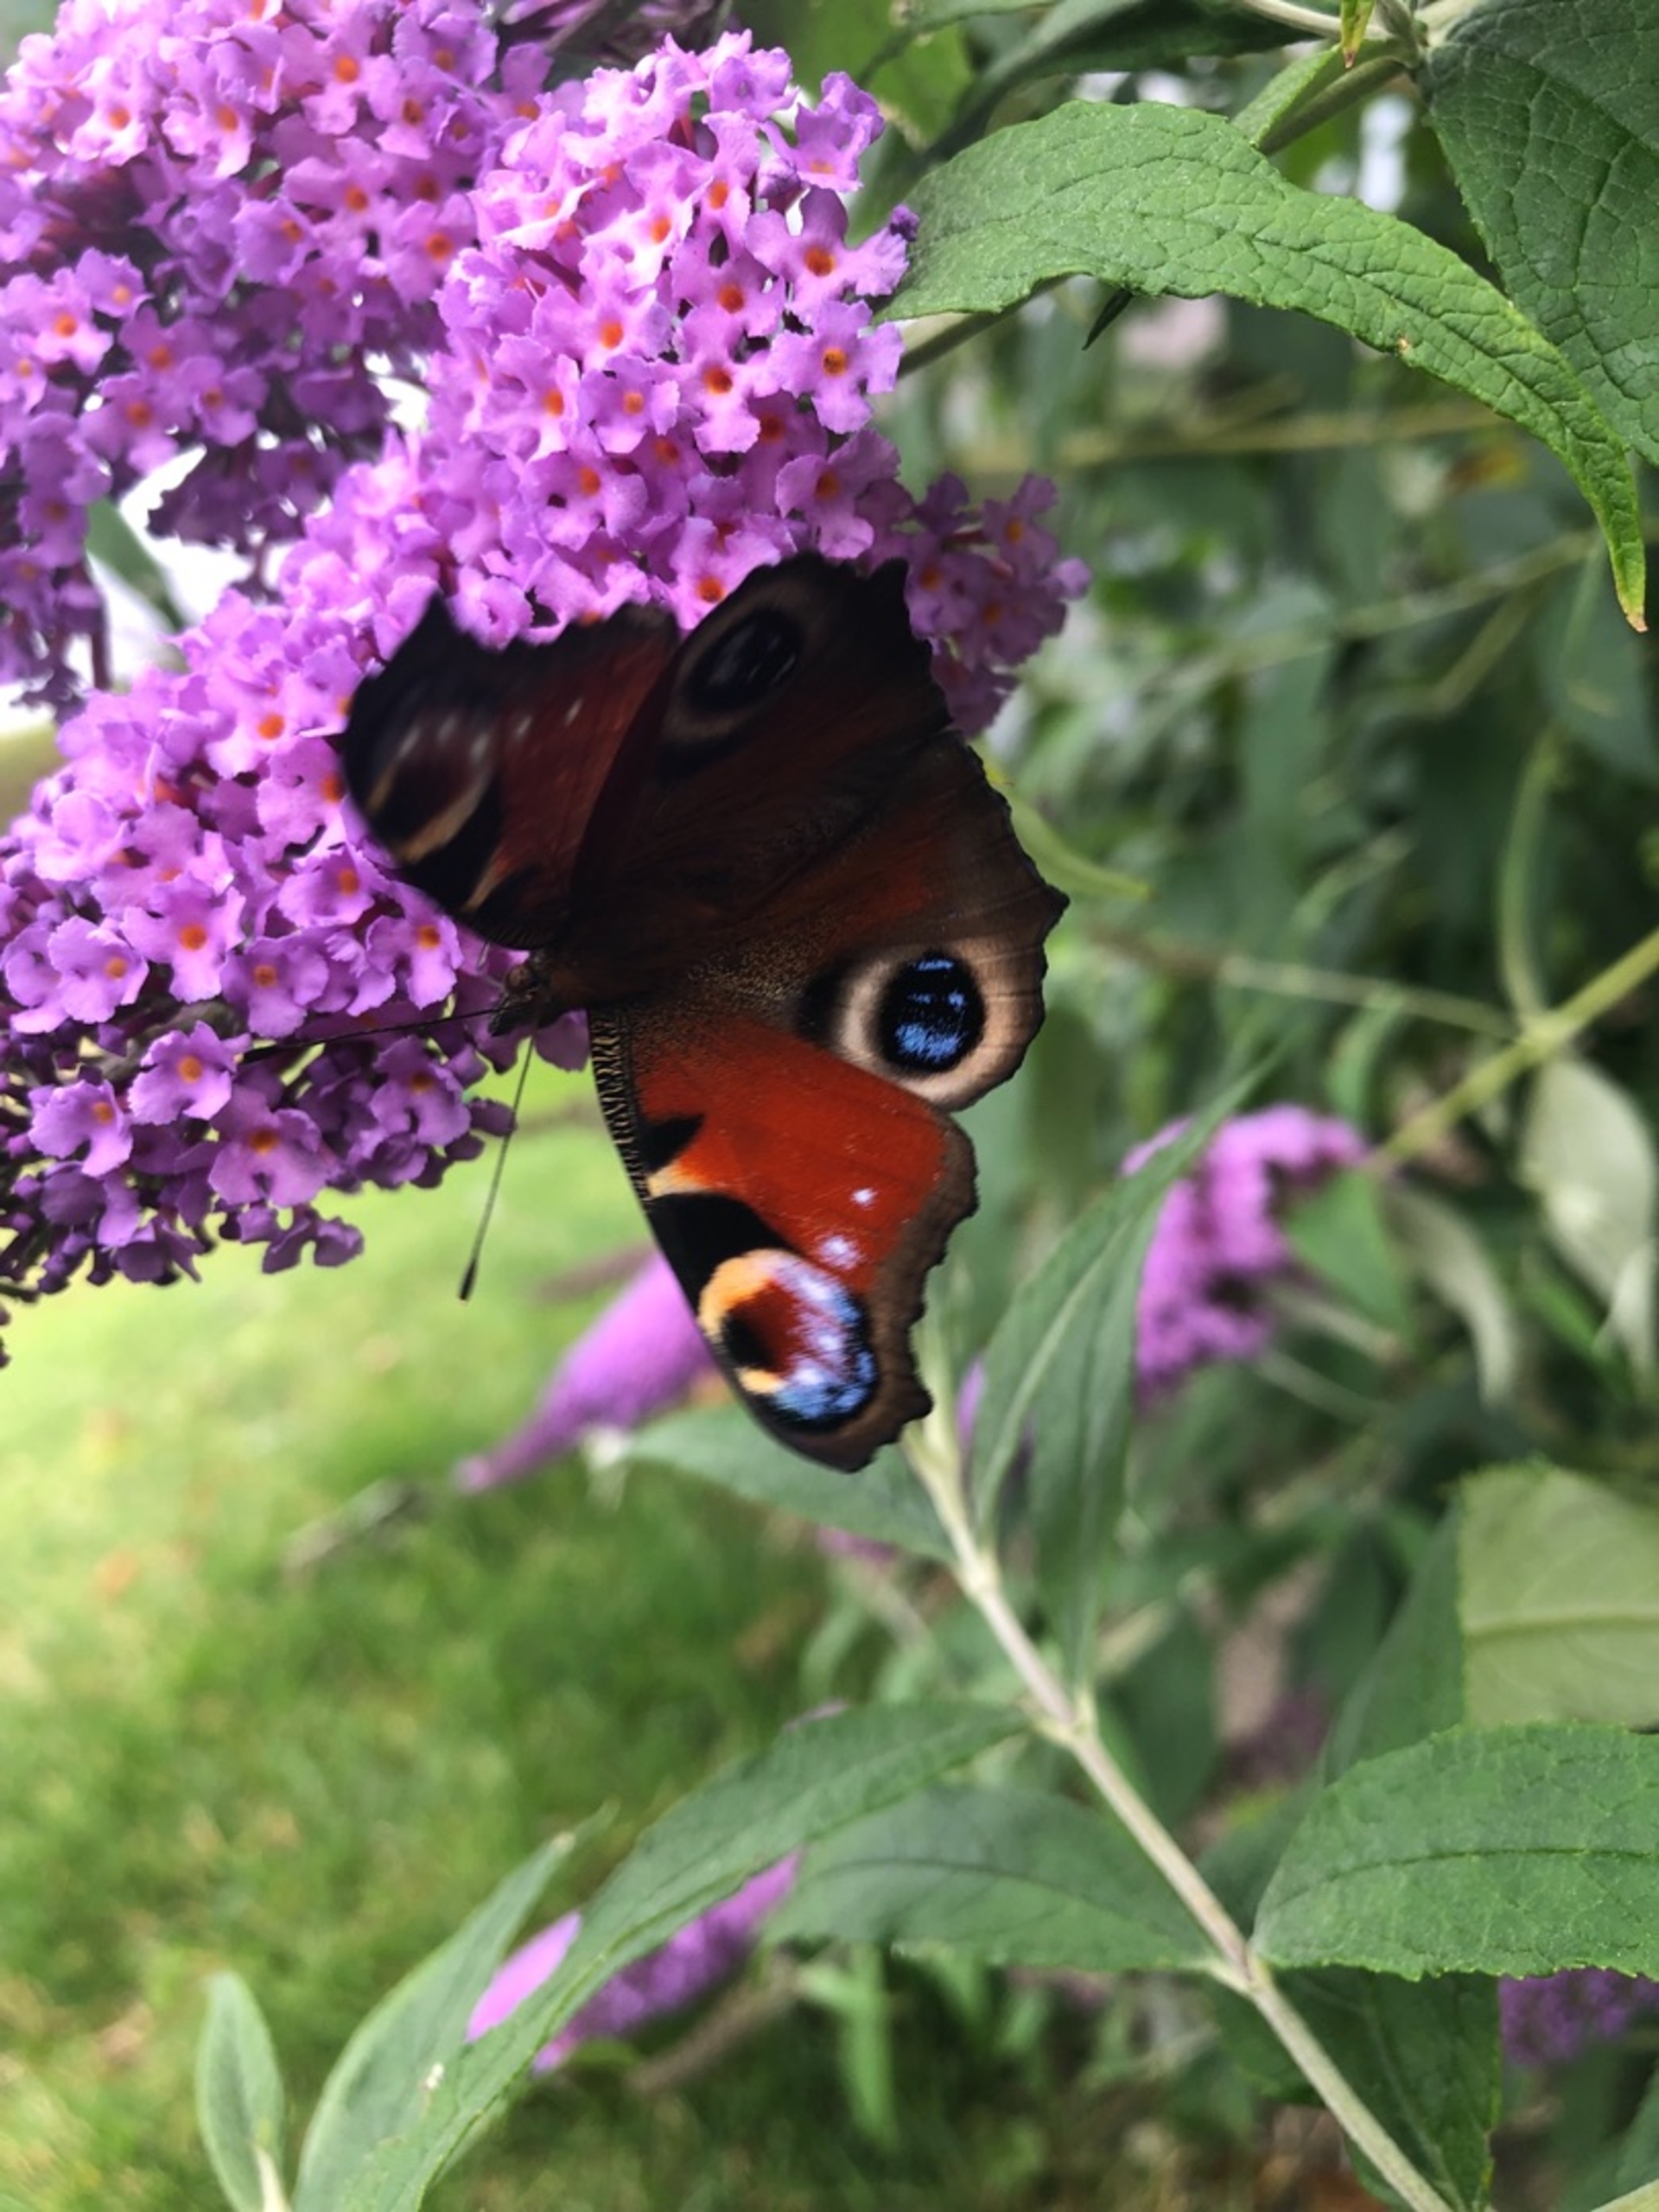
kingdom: Animalia
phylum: Arthropoda
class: Insecta
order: Lepidoptera
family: Nymphalidae
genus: Aglais
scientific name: Aglais io
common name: Dagpåfugleøje
